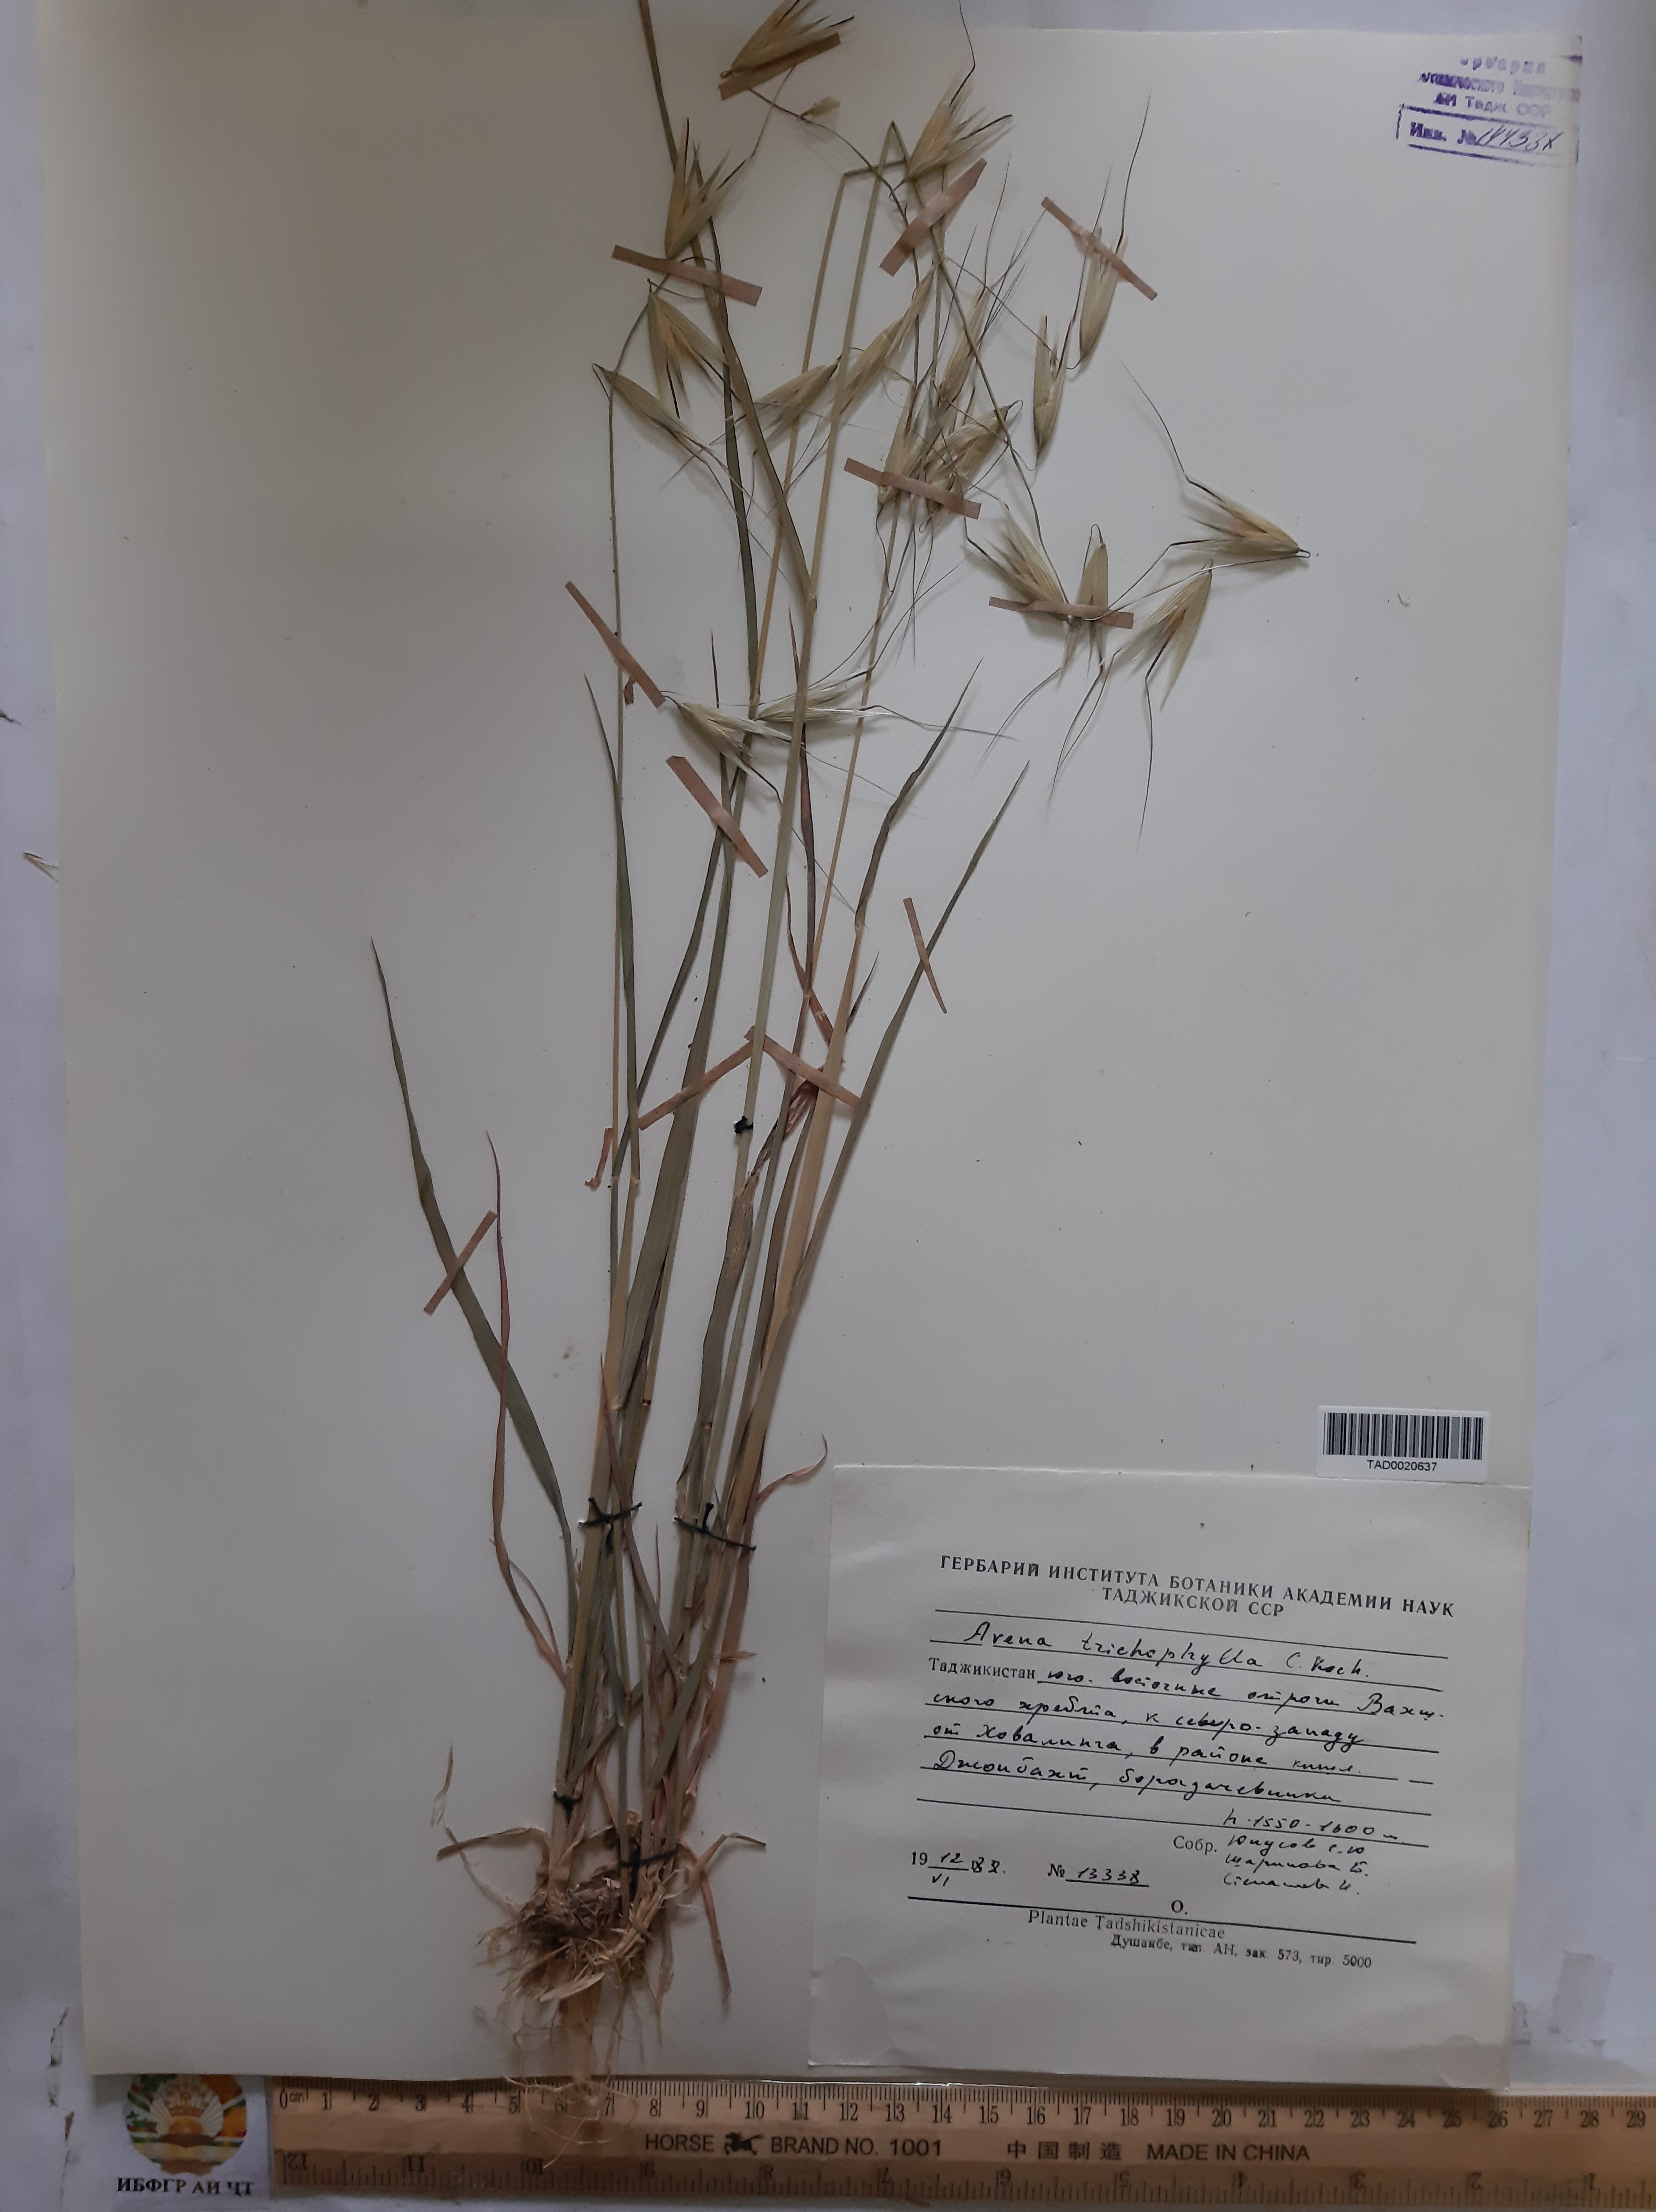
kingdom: Plantae
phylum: Tracheophyta
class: Liliopsida
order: Poales
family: Poaceae
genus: Avena
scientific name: Avena sterilis
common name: Animated oat
